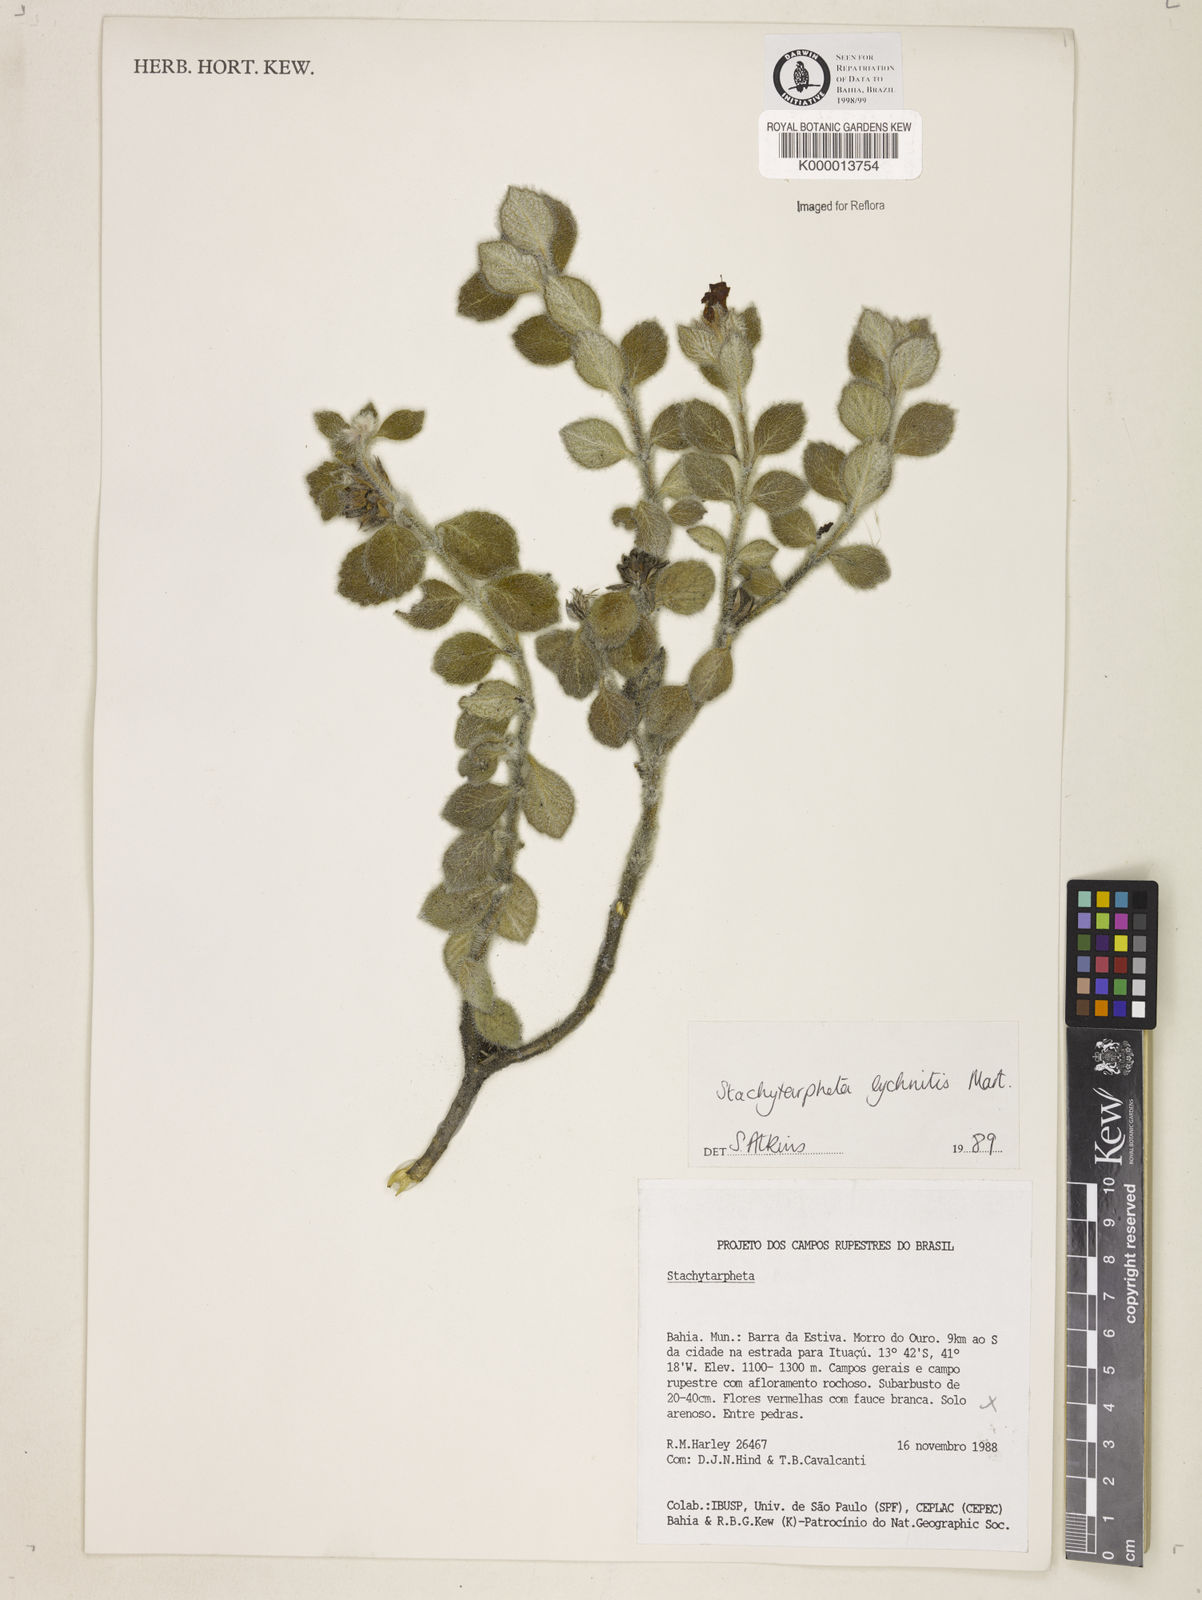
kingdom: Plantae
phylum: Tracheophyta
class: Magnoliopsida
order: Lamiales
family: Verbenaceae
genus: Stachytarpheta
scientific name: Stachytarpheta
